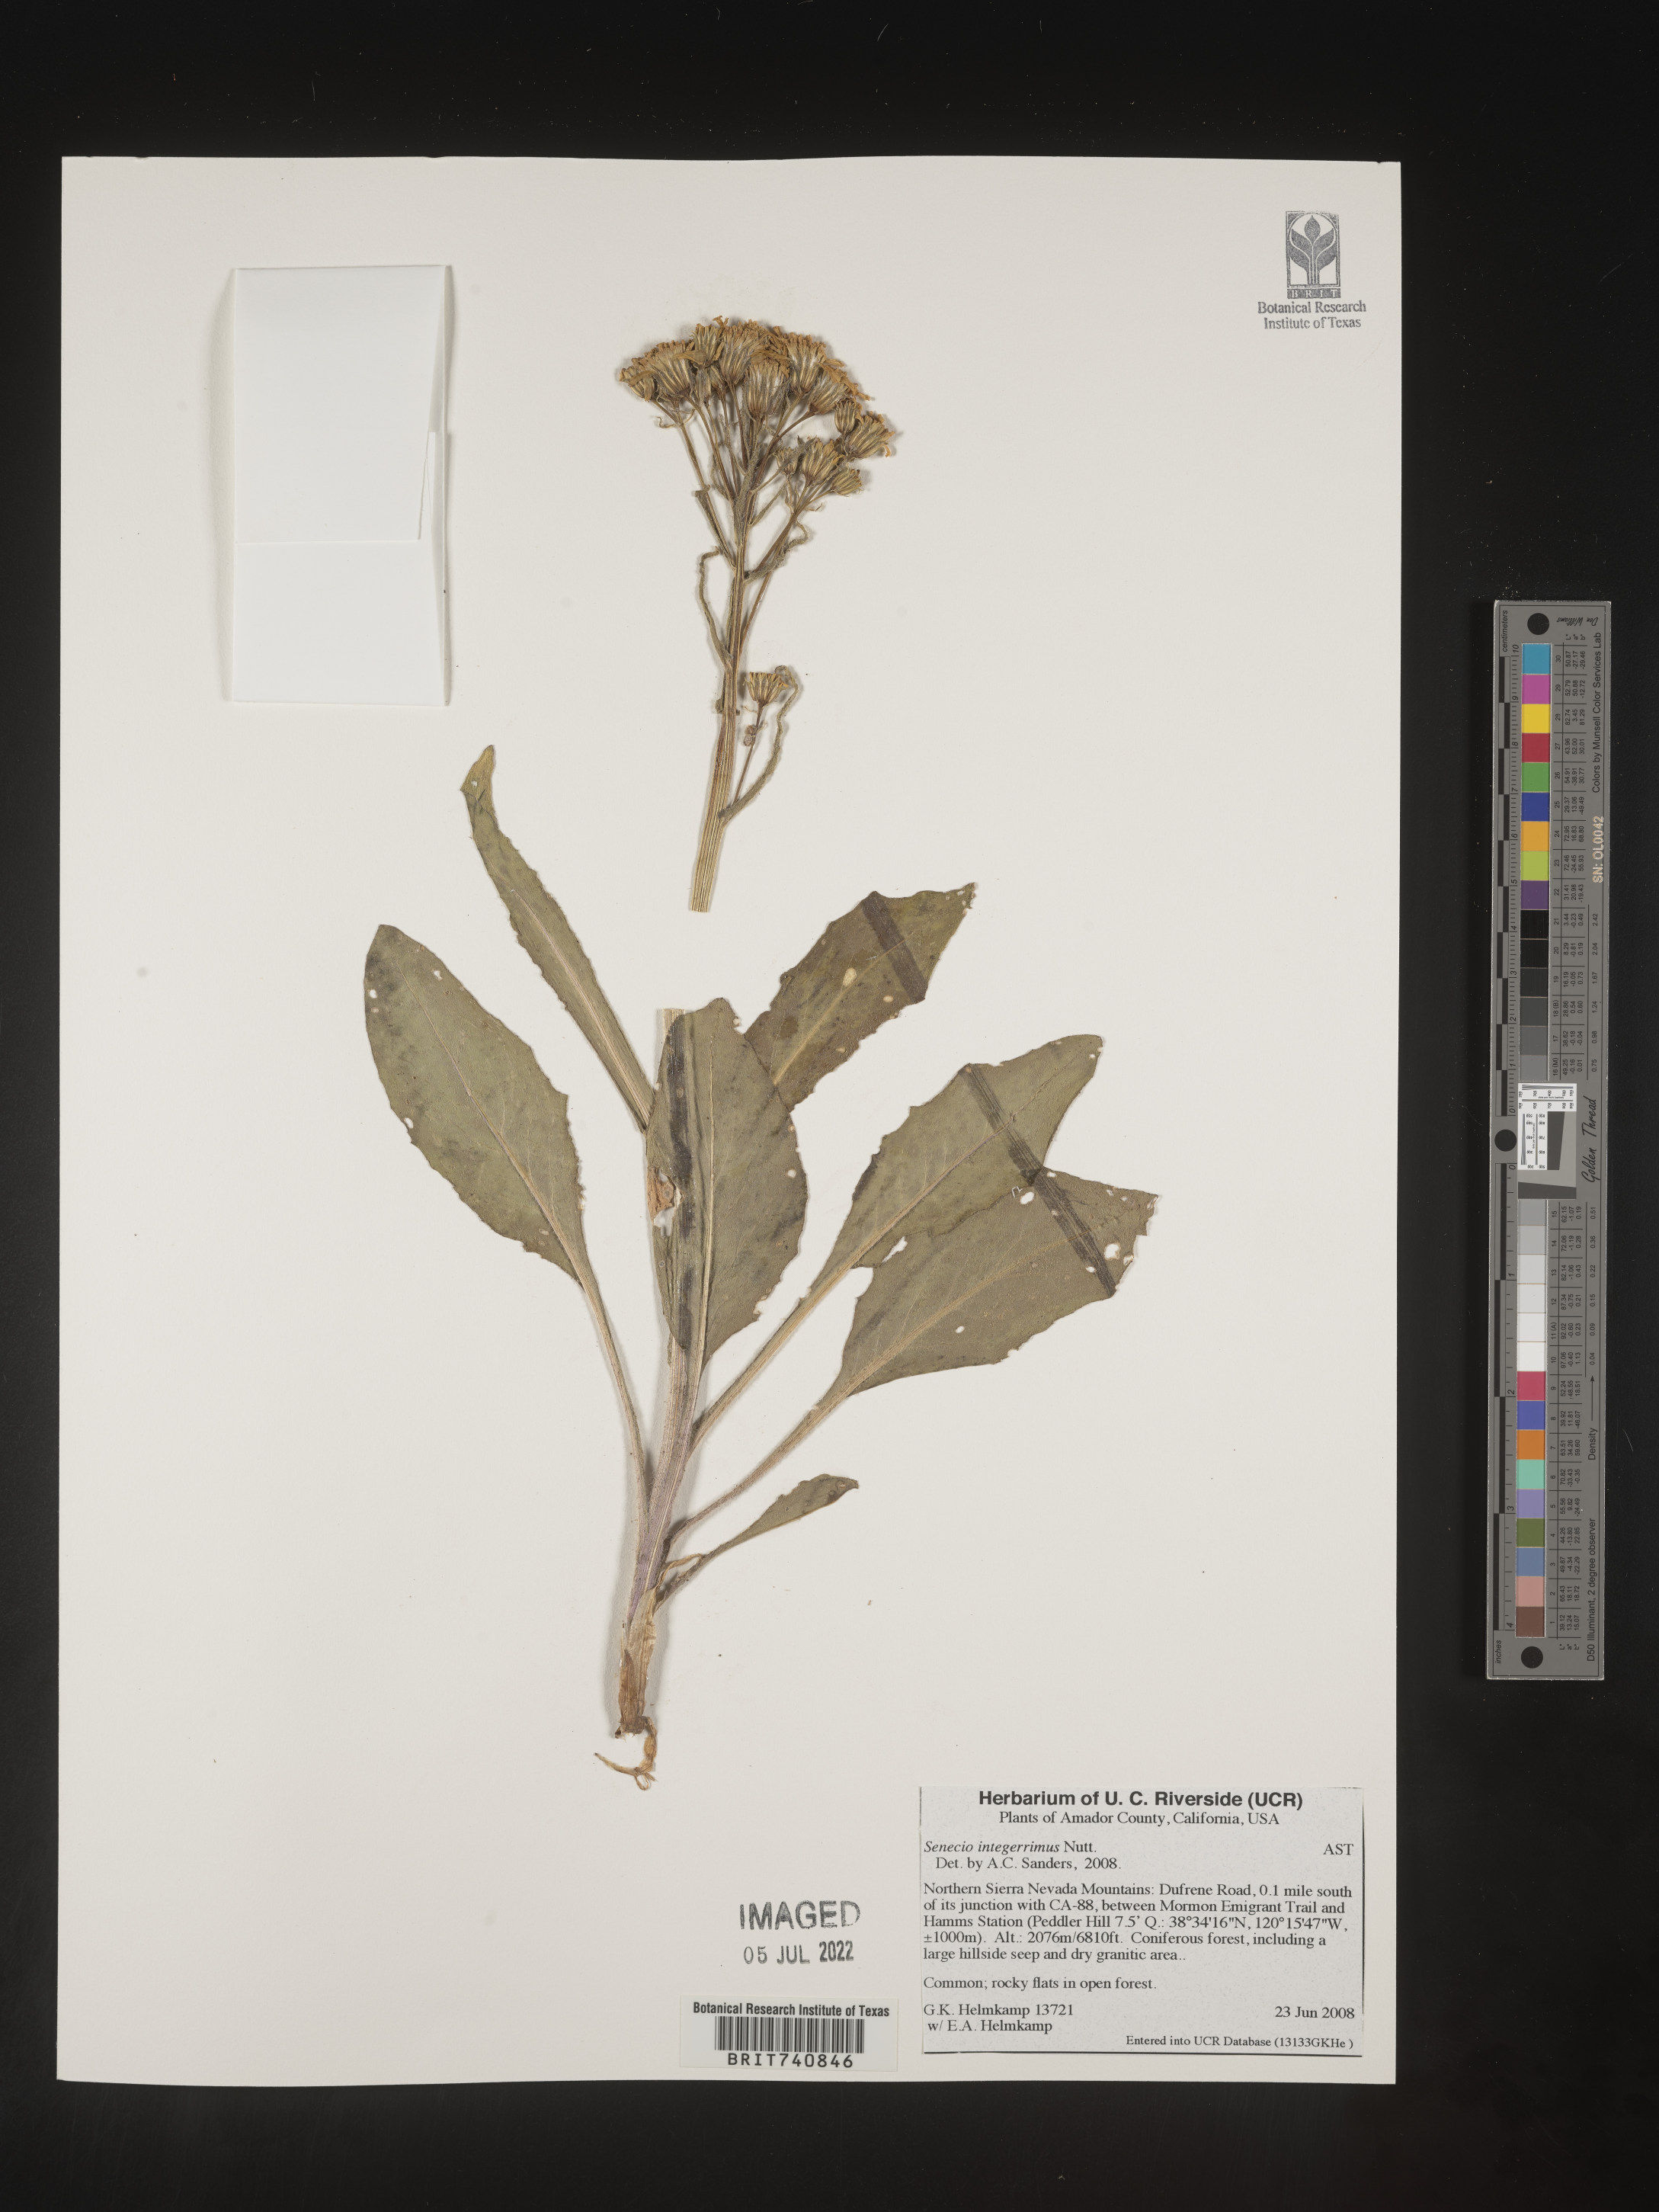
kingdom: Plantae
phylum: Tracheophyta
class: Magnoliopsida
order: Asterales
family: Asteraceae
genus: Senecio
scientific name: Senecio integerrimus
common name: Gaugeplant
